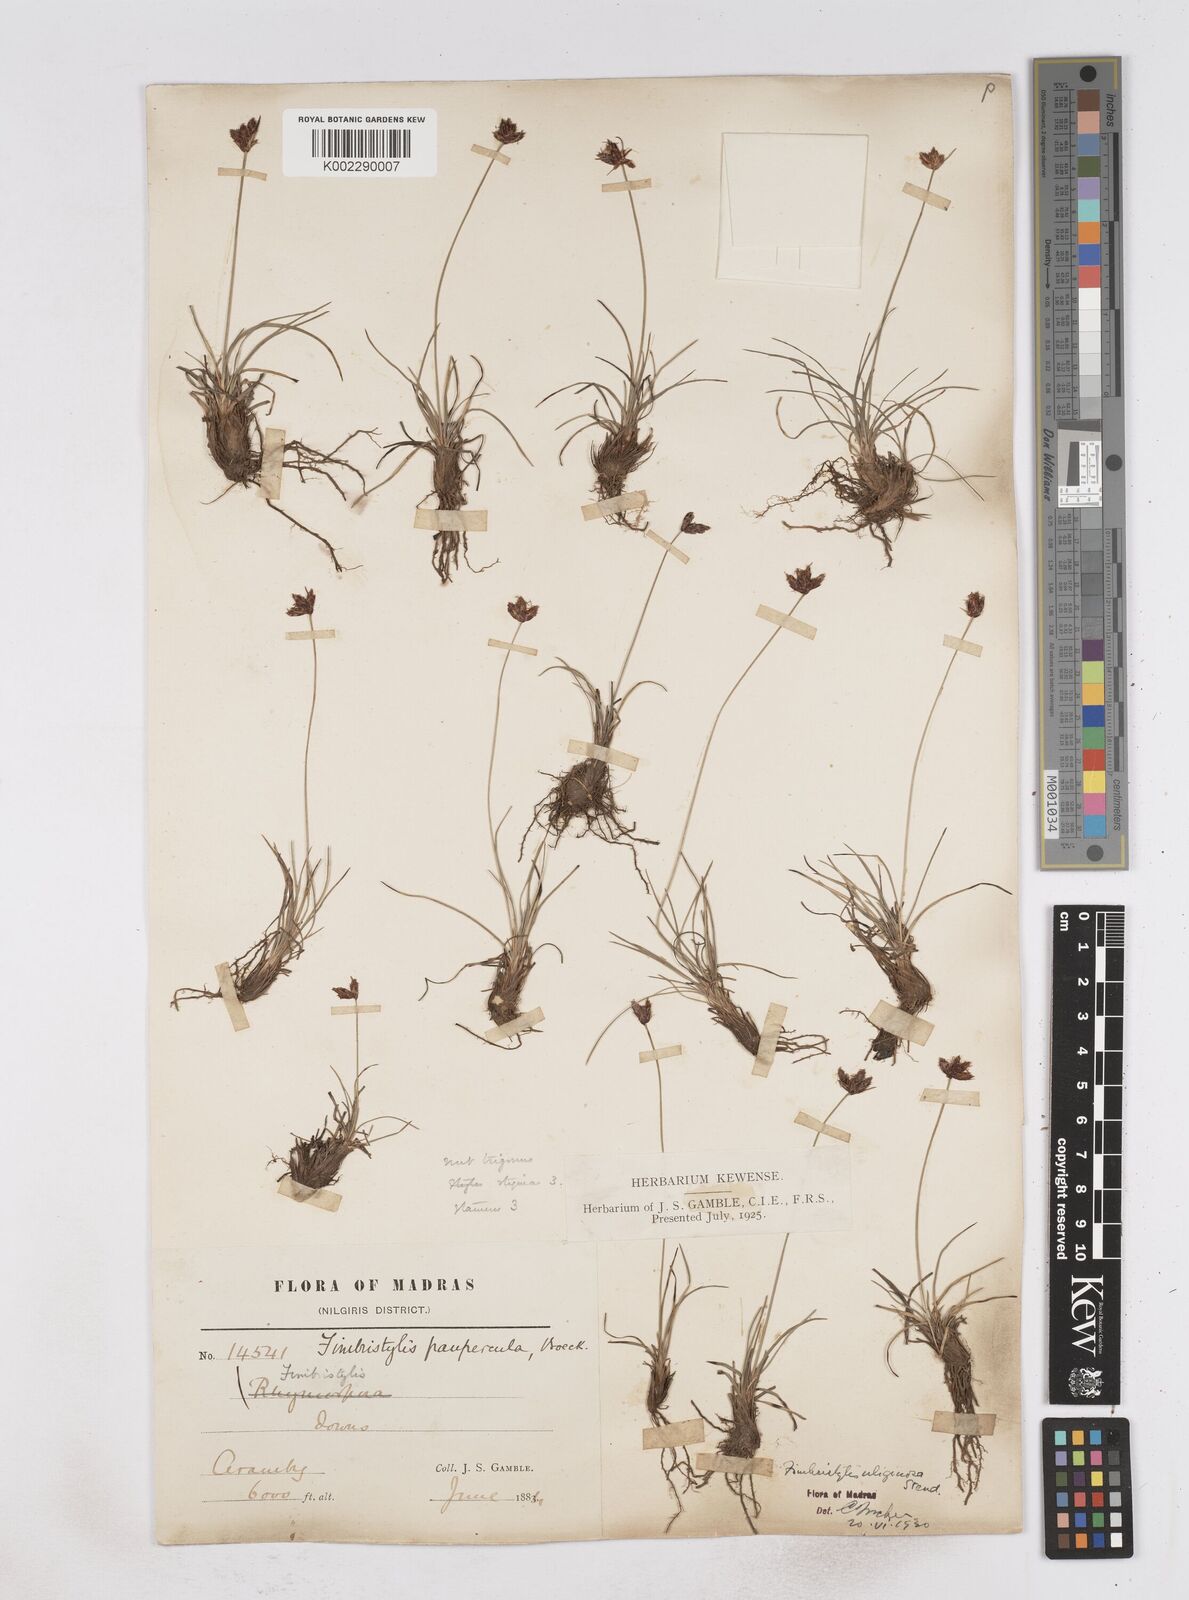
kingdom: Plantae
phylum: Tracheophyta
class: Liliopsida
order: Poales
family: Cyperaceae
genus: Fimbristylis
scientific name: Fimbristylis uliginosa
